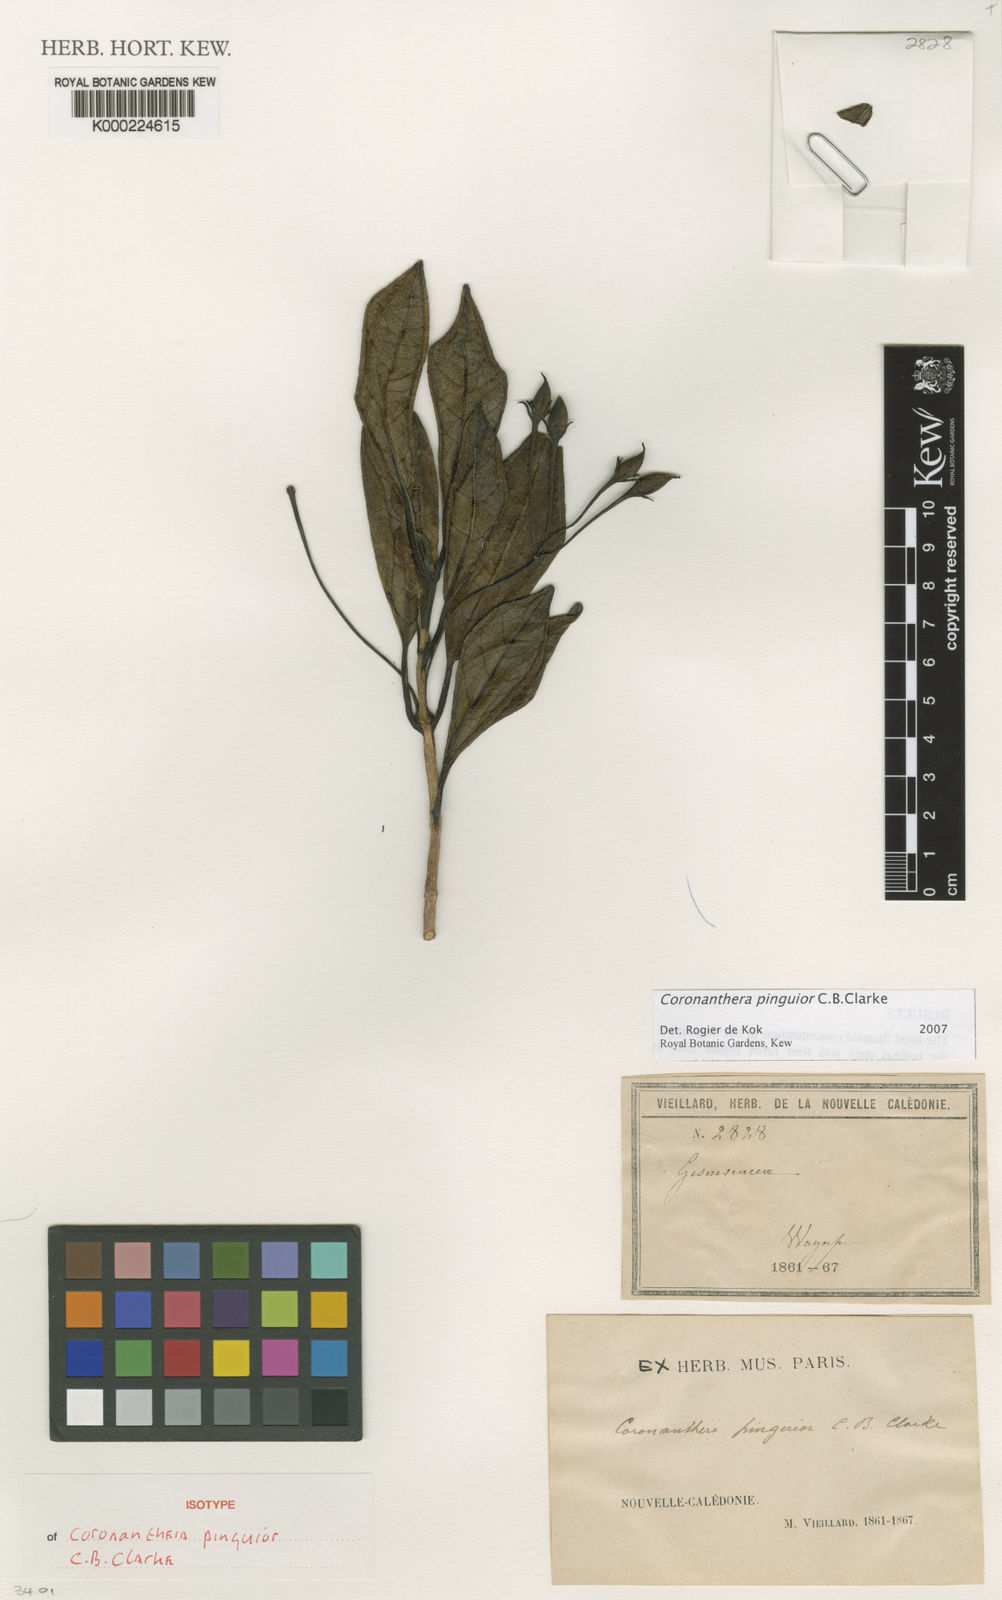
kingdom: Plantae
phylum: Tracheophyta
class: Magnoliopsida
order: Lamiales
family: Gesneriaceae
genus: Coronanthera
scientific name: Coronanthera pinguior
